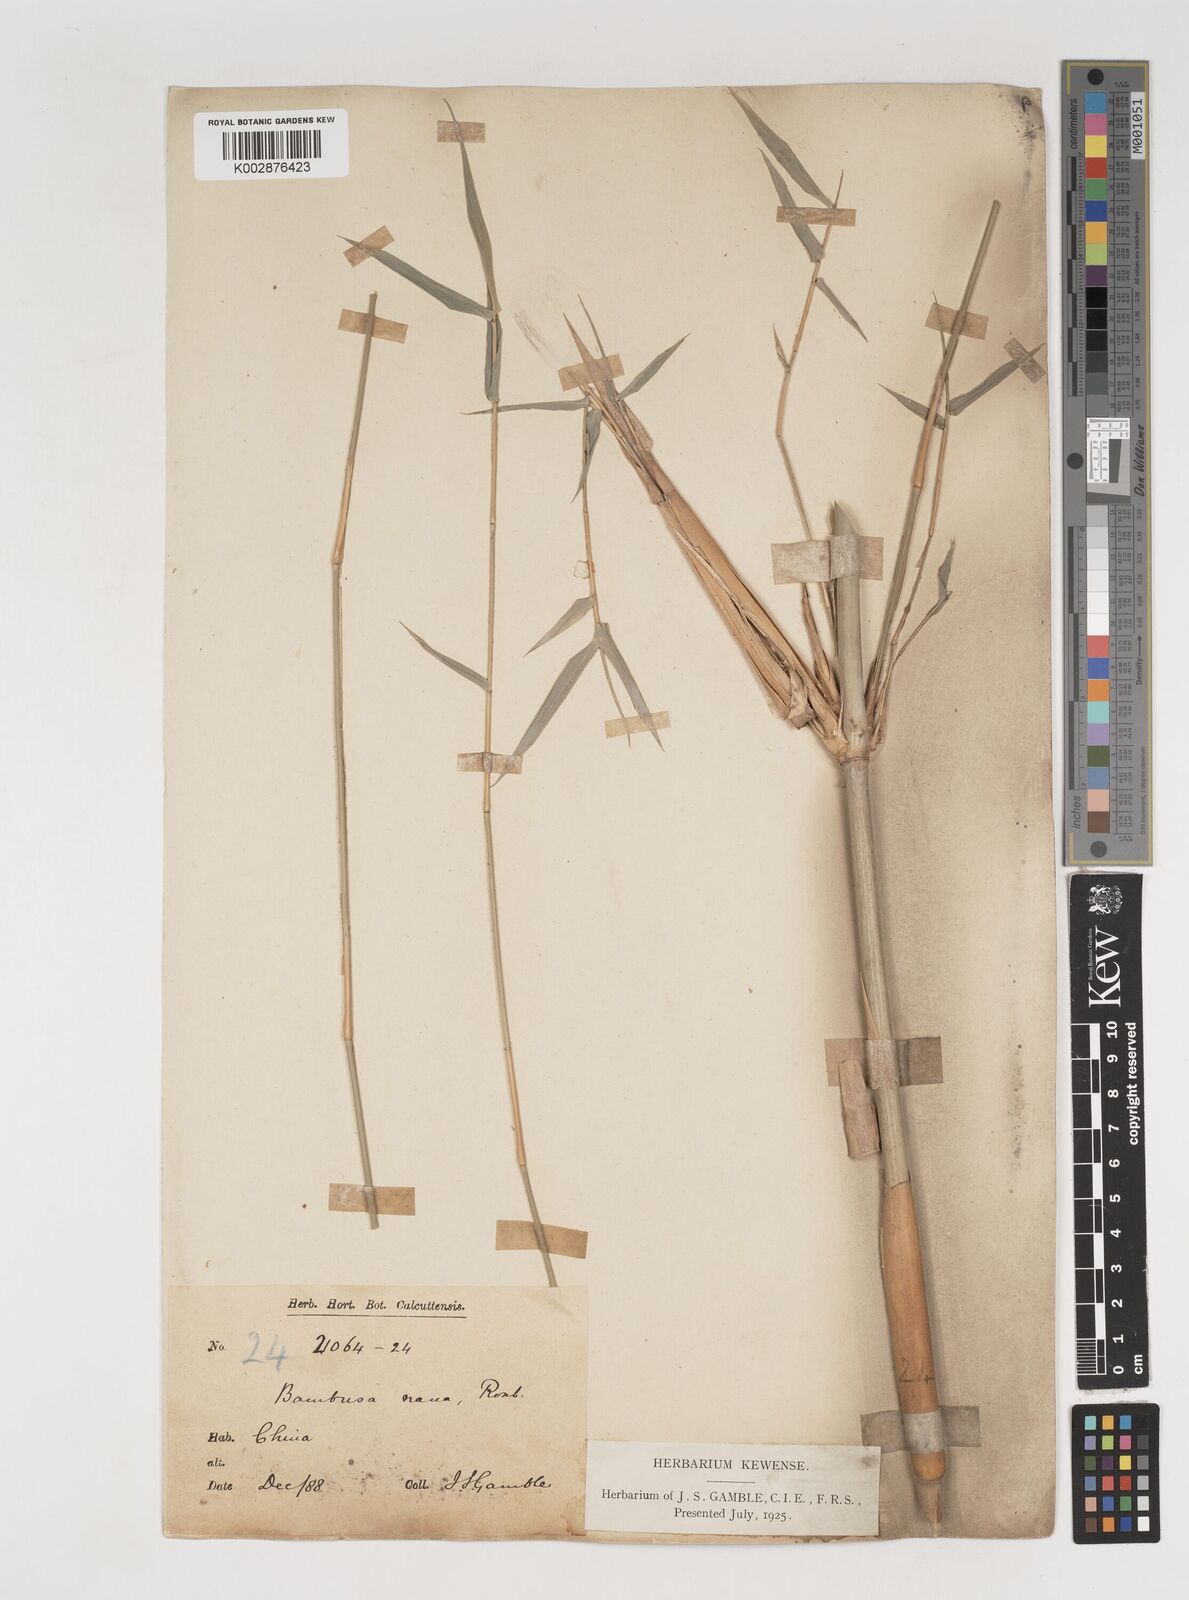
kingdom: Plantae
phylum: Tracheophyta
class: Liliopsida
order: Poales
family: Poaceae
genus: Bambusa
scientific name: Bambusa multiplex
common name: Hedge bamboo
